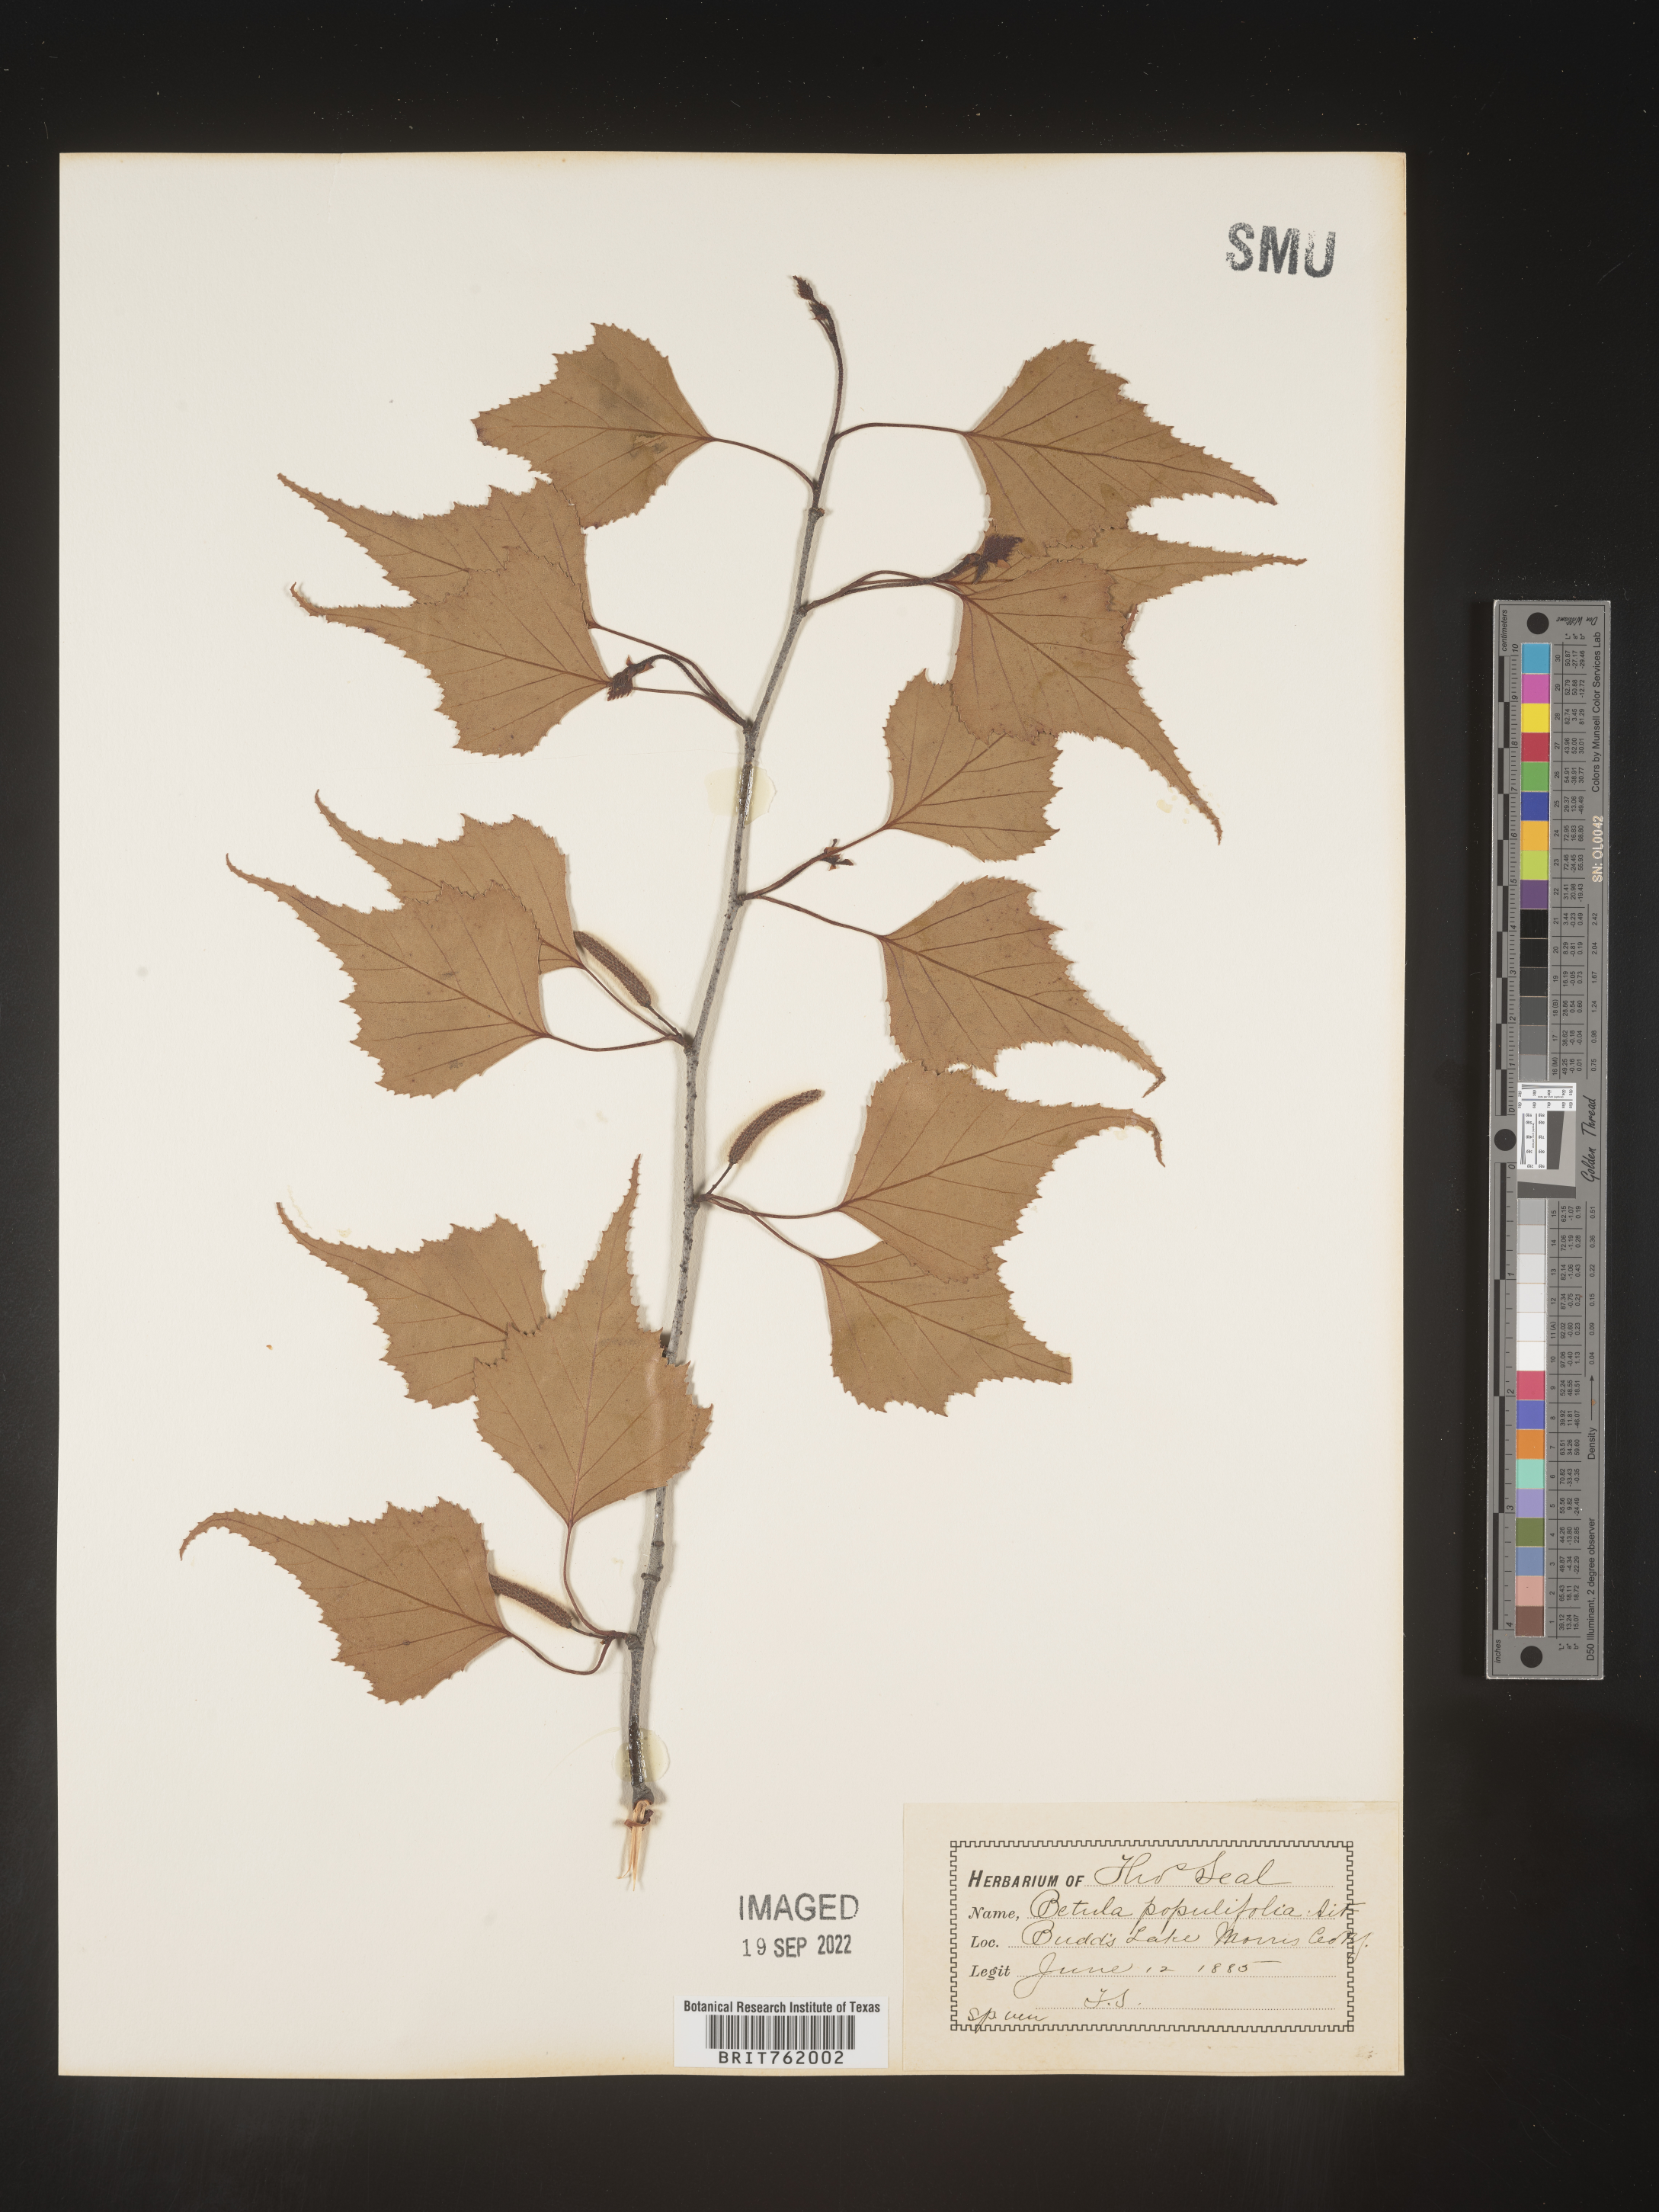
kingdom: Plantae
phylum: Tracheophyta
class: Magnoliopsida
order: Fagales
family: Betulaceae
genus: Betula
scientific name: Betula populifolia
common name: Fire birch
